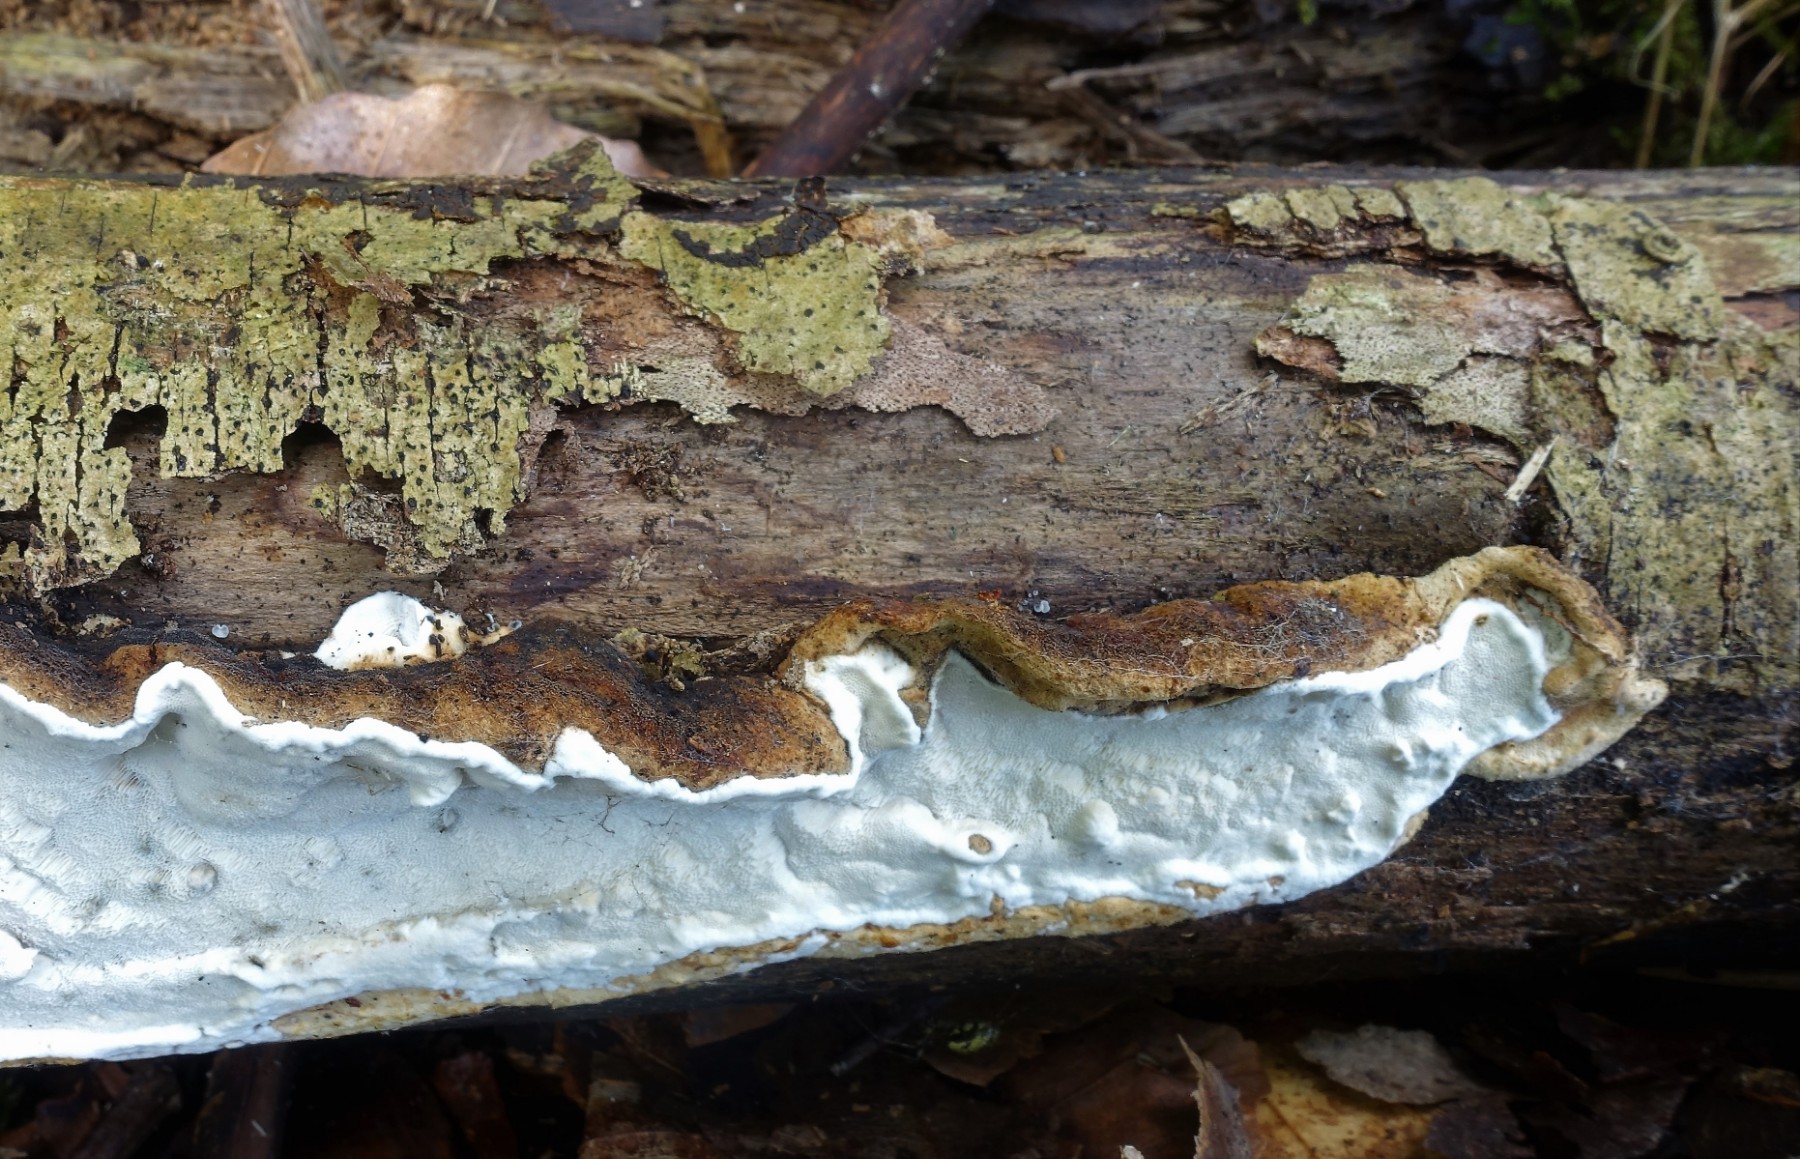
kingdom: Fungi
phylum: Basidiomycota
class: Agaricomycetes
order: Russulales
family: Hericiaceae
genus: Laxitextum
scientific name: Laxitextum bicolor
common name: tvefarvet filtskind
